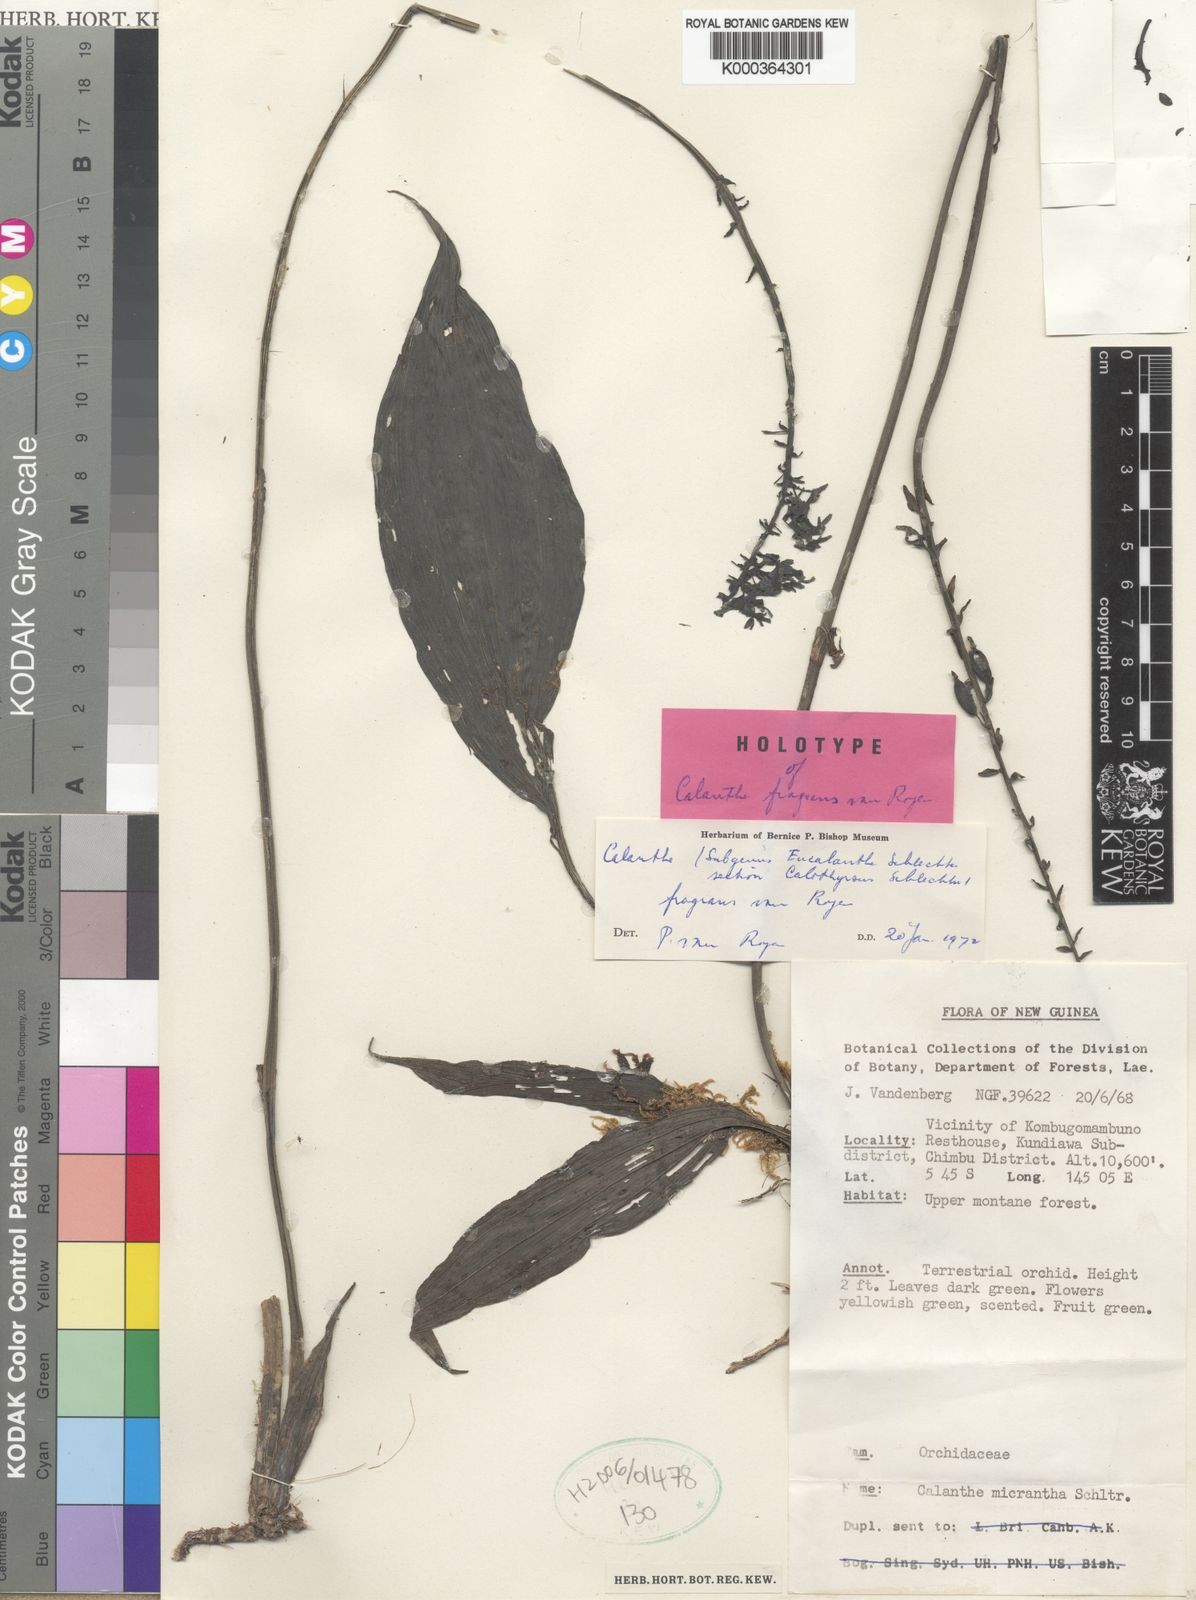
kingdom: Plantae
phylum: Tracheophyta
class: Liliopsida
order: Asparagales
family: Orchidaceae
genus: Calanthe
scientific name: Calanthe fragrans
